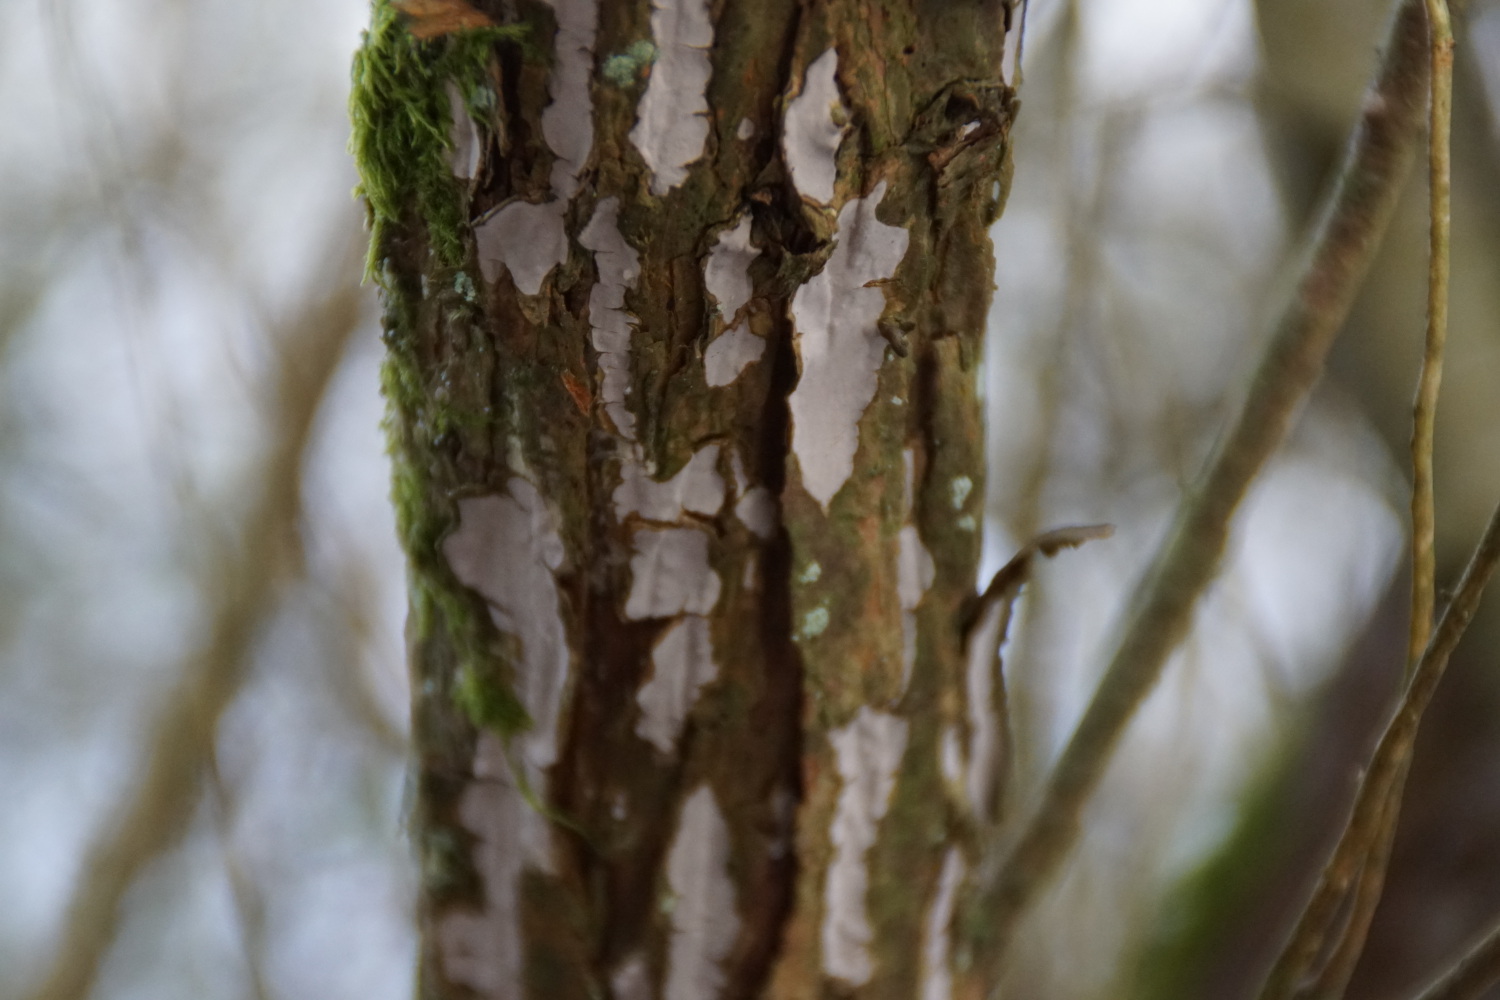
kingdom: Fungi
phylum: Basidiomycota
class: Agaricomycetes
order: Russulales
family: Echinodontiaceae
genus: Amylostereum
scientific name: Amylostereum laevigatum
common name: ene-lædersvamp
